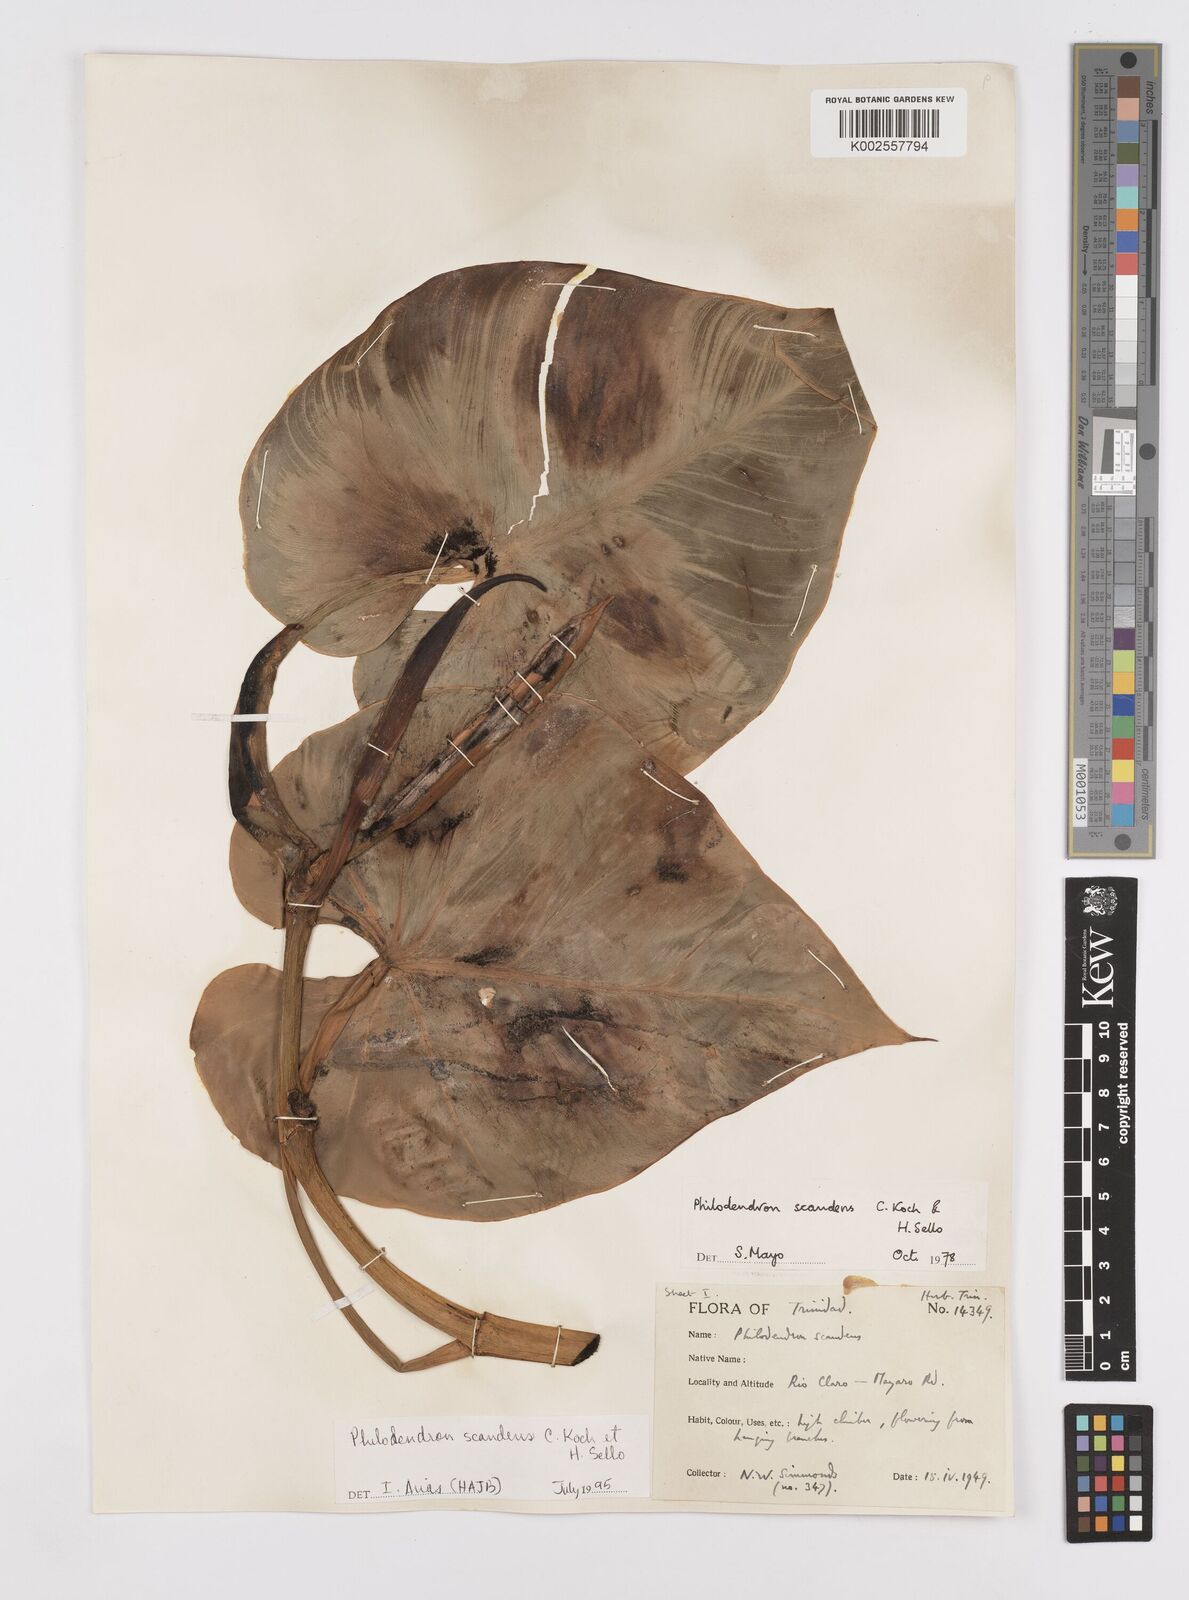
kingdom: Plantae
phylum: Tracheophyta
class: Liliopsida
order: Alismatales
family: Araceae
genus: Philodendron
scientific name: Philodendron hederaceum
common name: Vilevine
